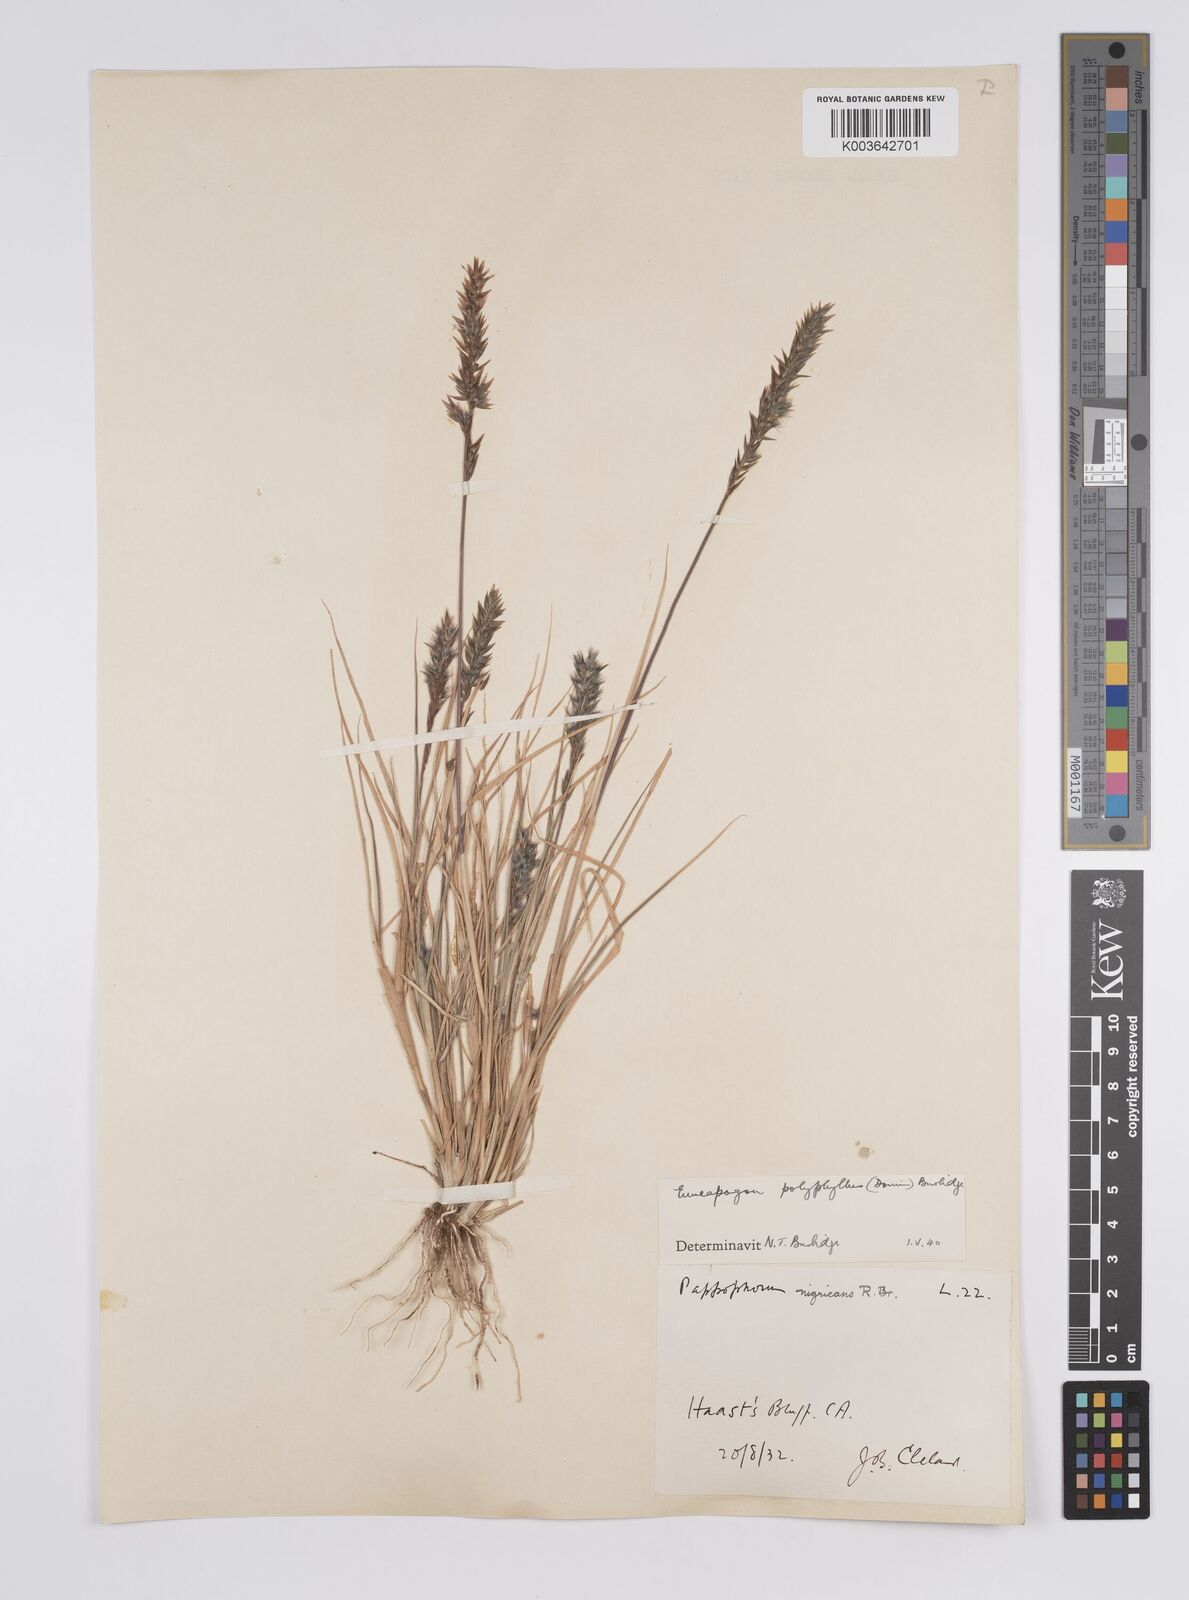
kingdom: Plantae
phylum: Tracheophyta
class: Liliopsida
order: Poales
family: Poaceae
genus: Enneapogon
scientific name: Enneapogon polyphyllus
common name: Leafy nineawn
